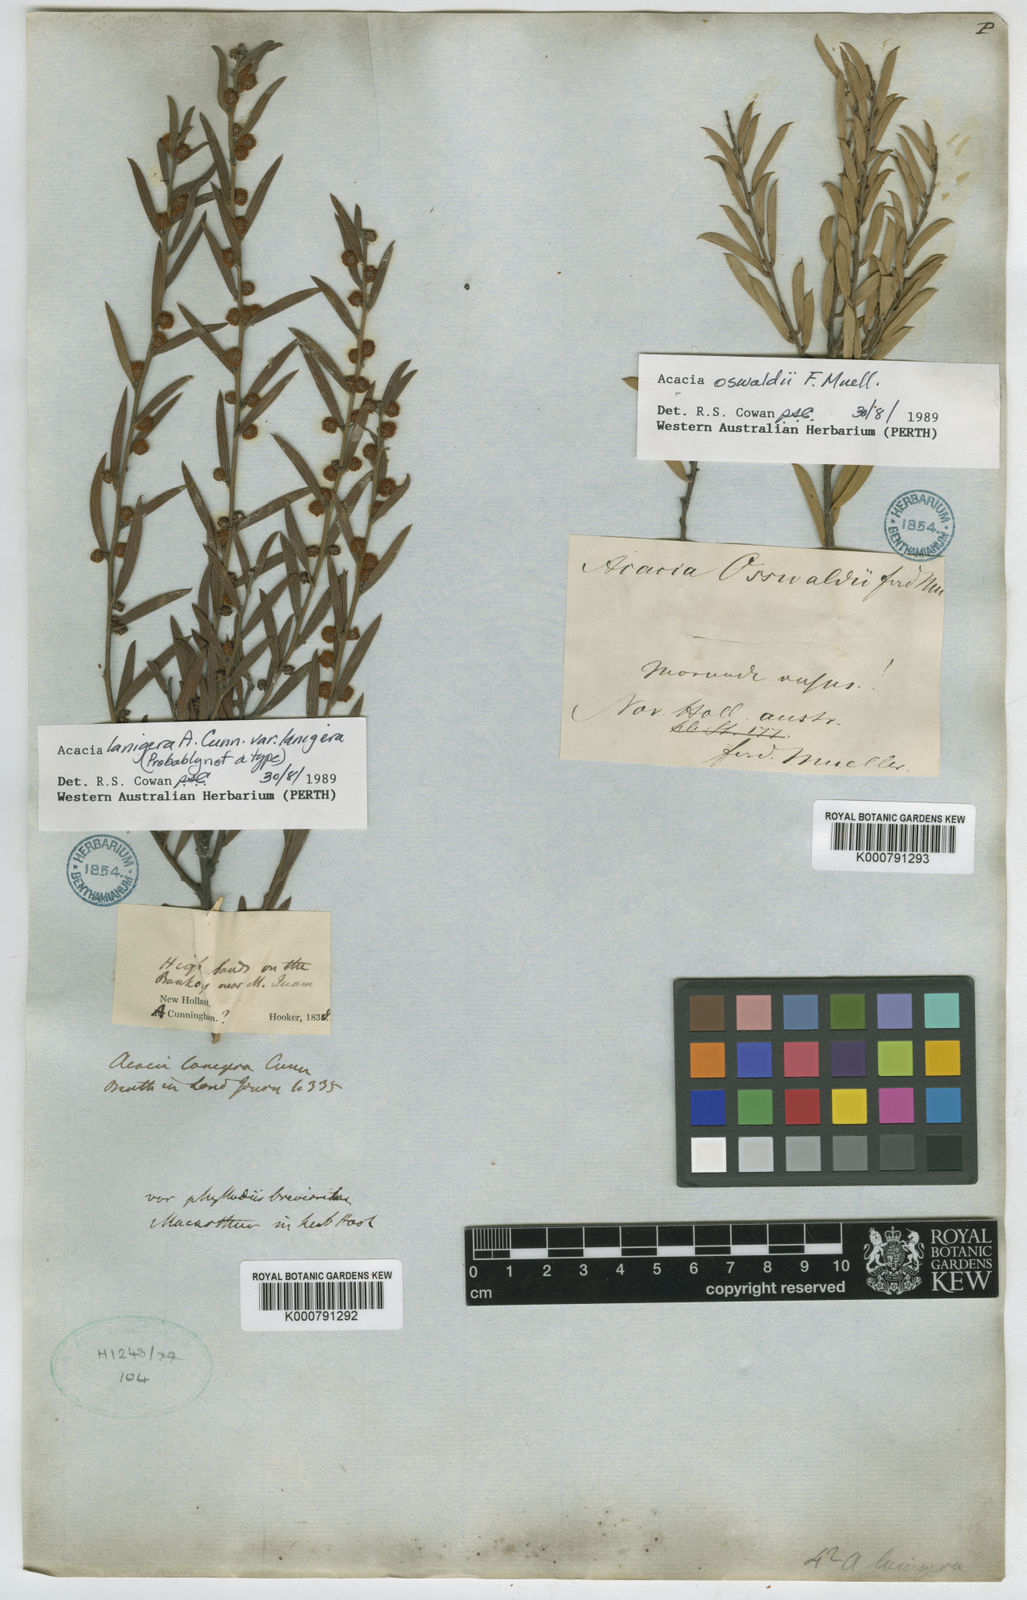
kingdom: Plantae
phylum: Tracheophyta
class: Magnoliopsida
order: Fabales
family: Fabaceae
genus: Acacia
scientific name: Acacia lanigera
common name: Hairy wattle
